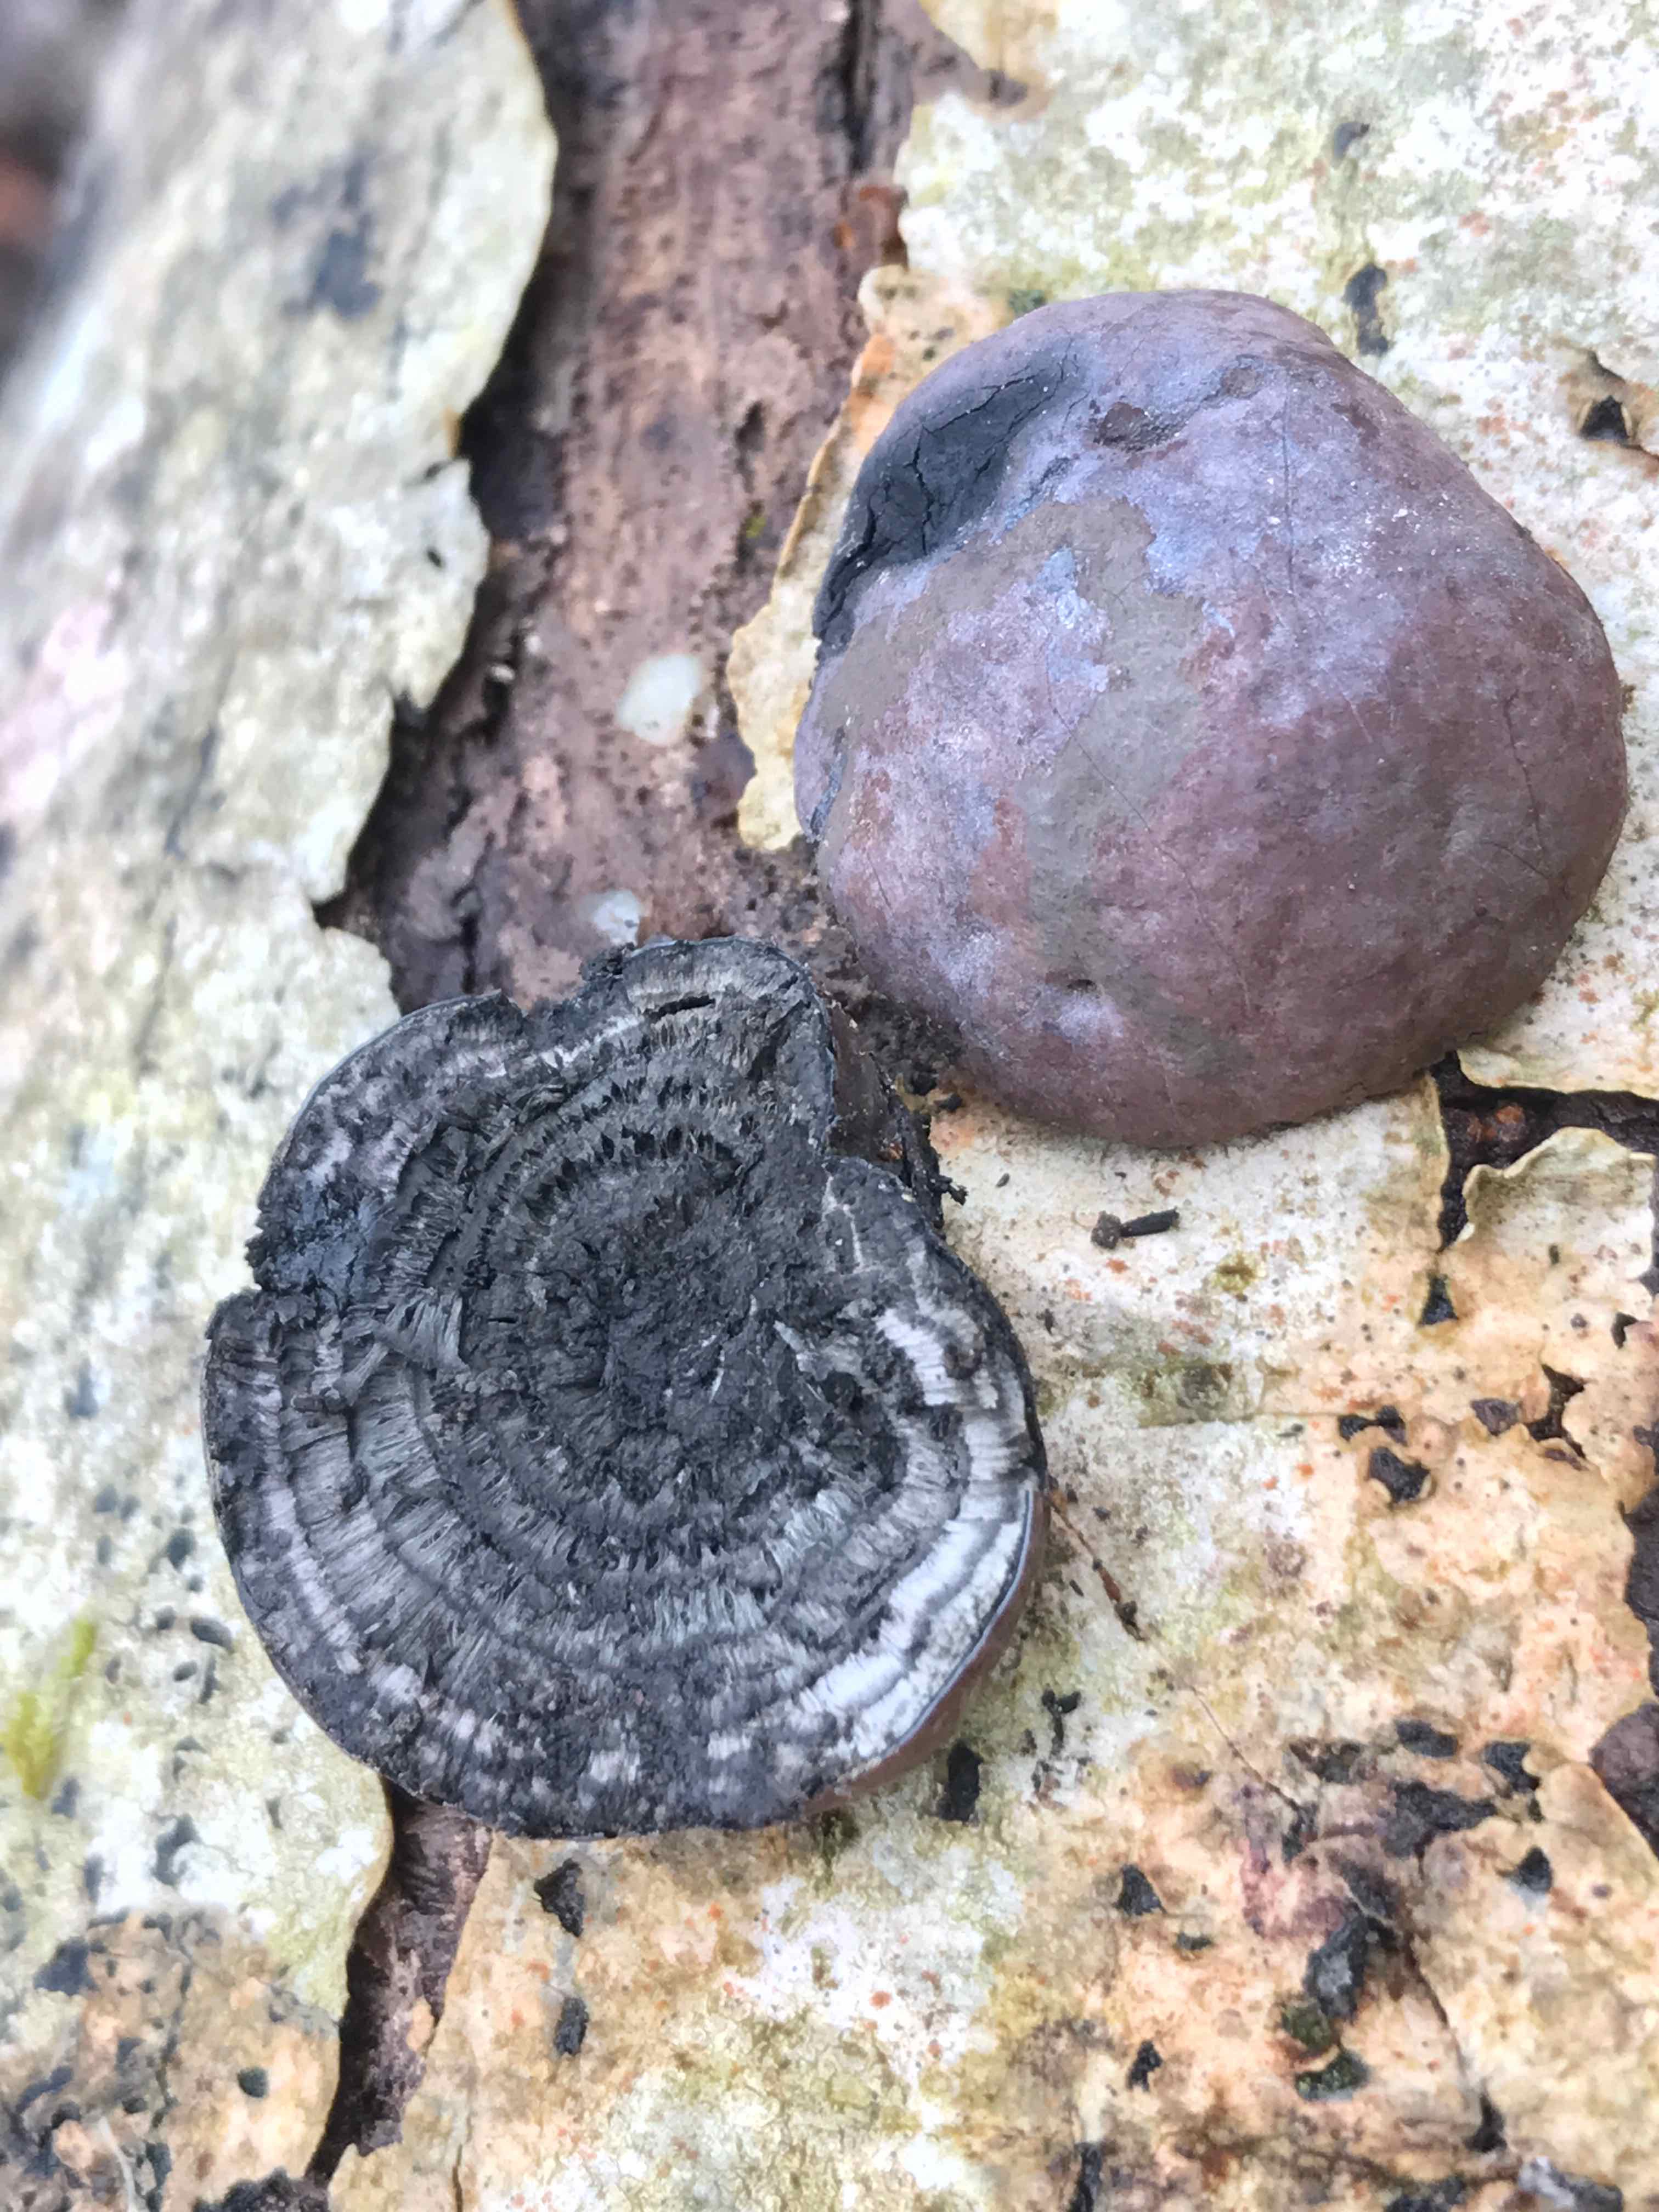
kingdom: Fungi
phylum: Ascomycota
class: Sordariomycetes
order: Xylariales
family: Hypoxylaceae
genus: Daldinia
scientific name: Daldinia concentrica
